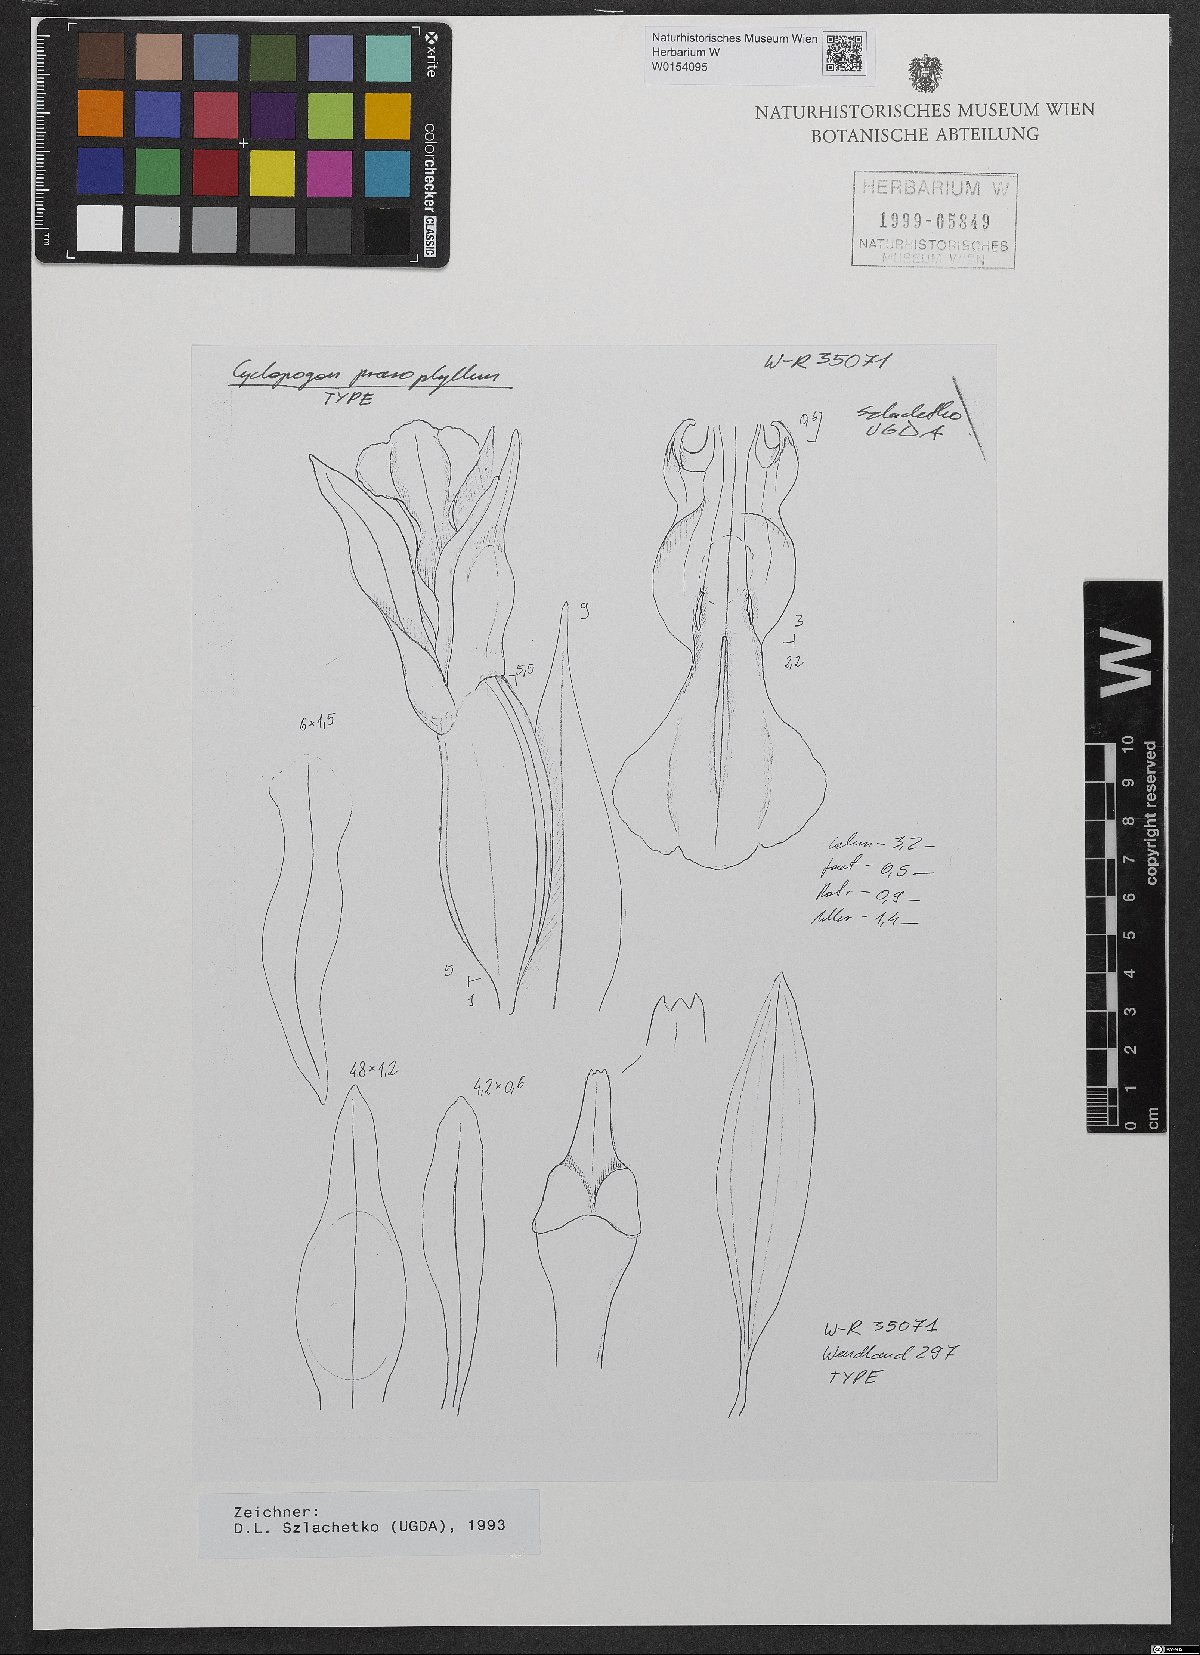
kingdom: Plantae
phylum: Tracheophyta
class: Liliopsida
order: Asparagales
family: Orchidaceae
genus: Cyclopogon
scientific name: Cyclopogon prasophyllus
